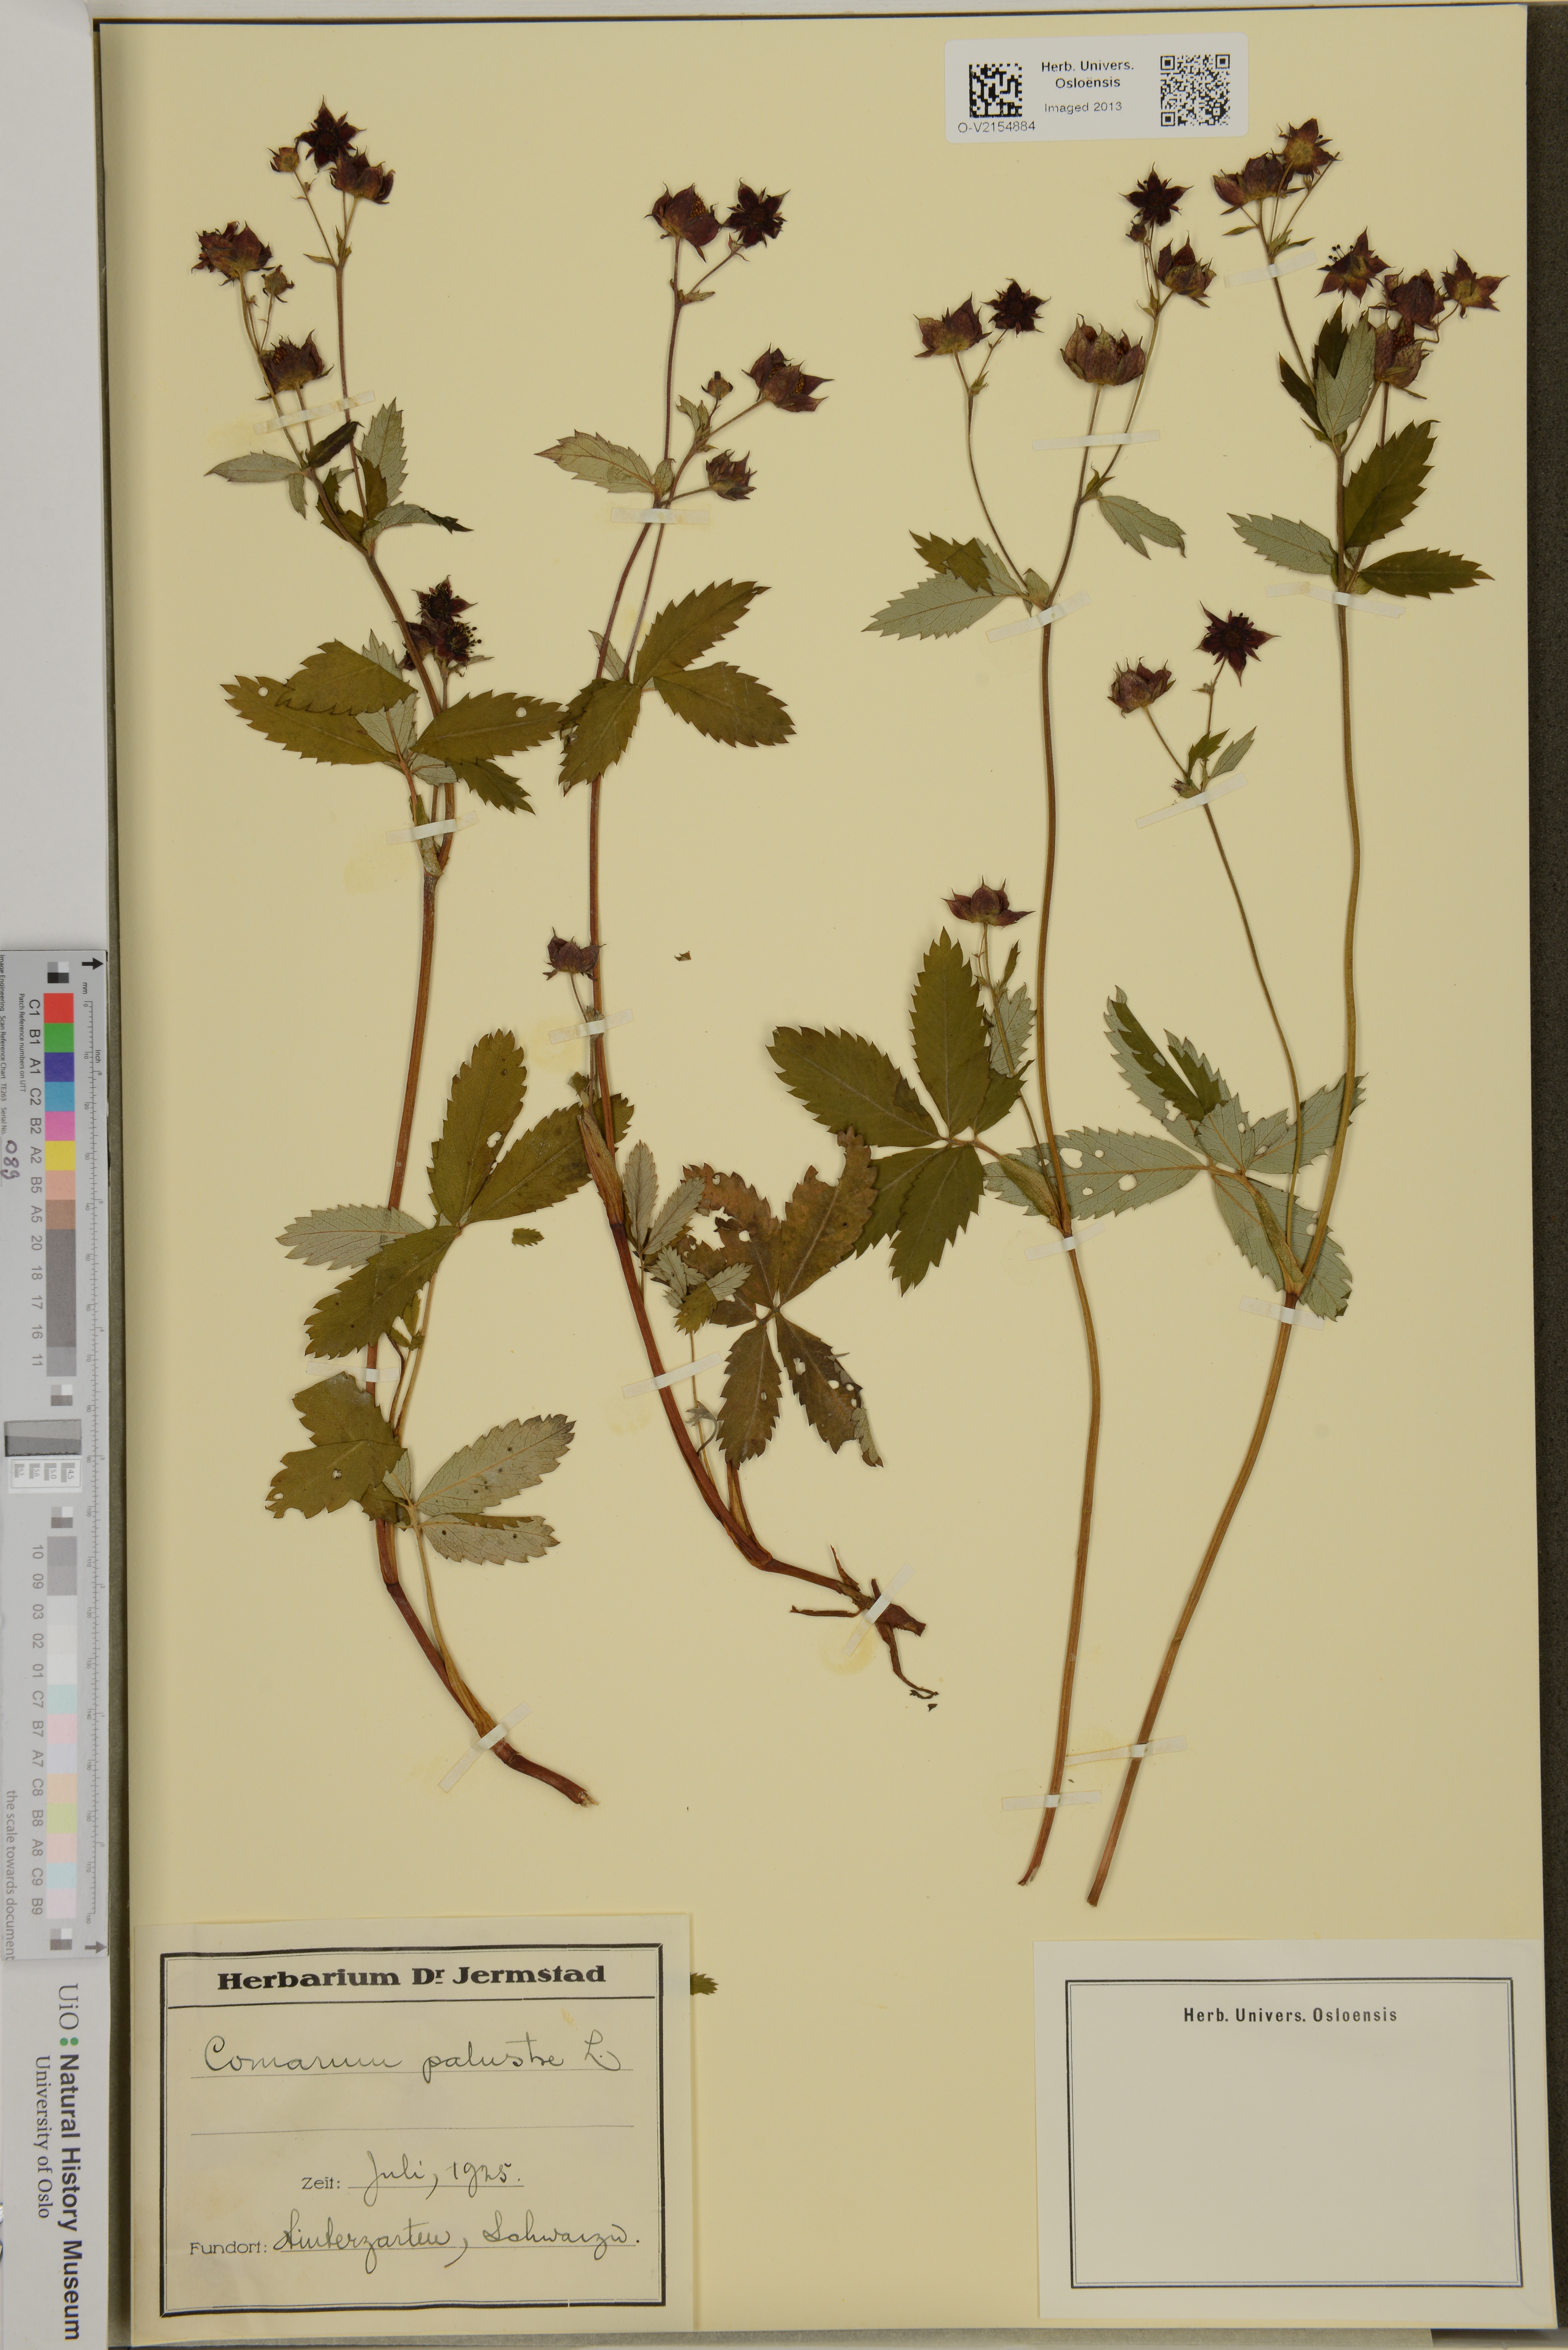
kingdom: Plantae
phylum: Tracheophyta
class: Magnoliopsida
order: Rosales
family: Rosaceae
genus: Comarum
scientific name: Comarum palustre
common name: Marsh cinquefoil
